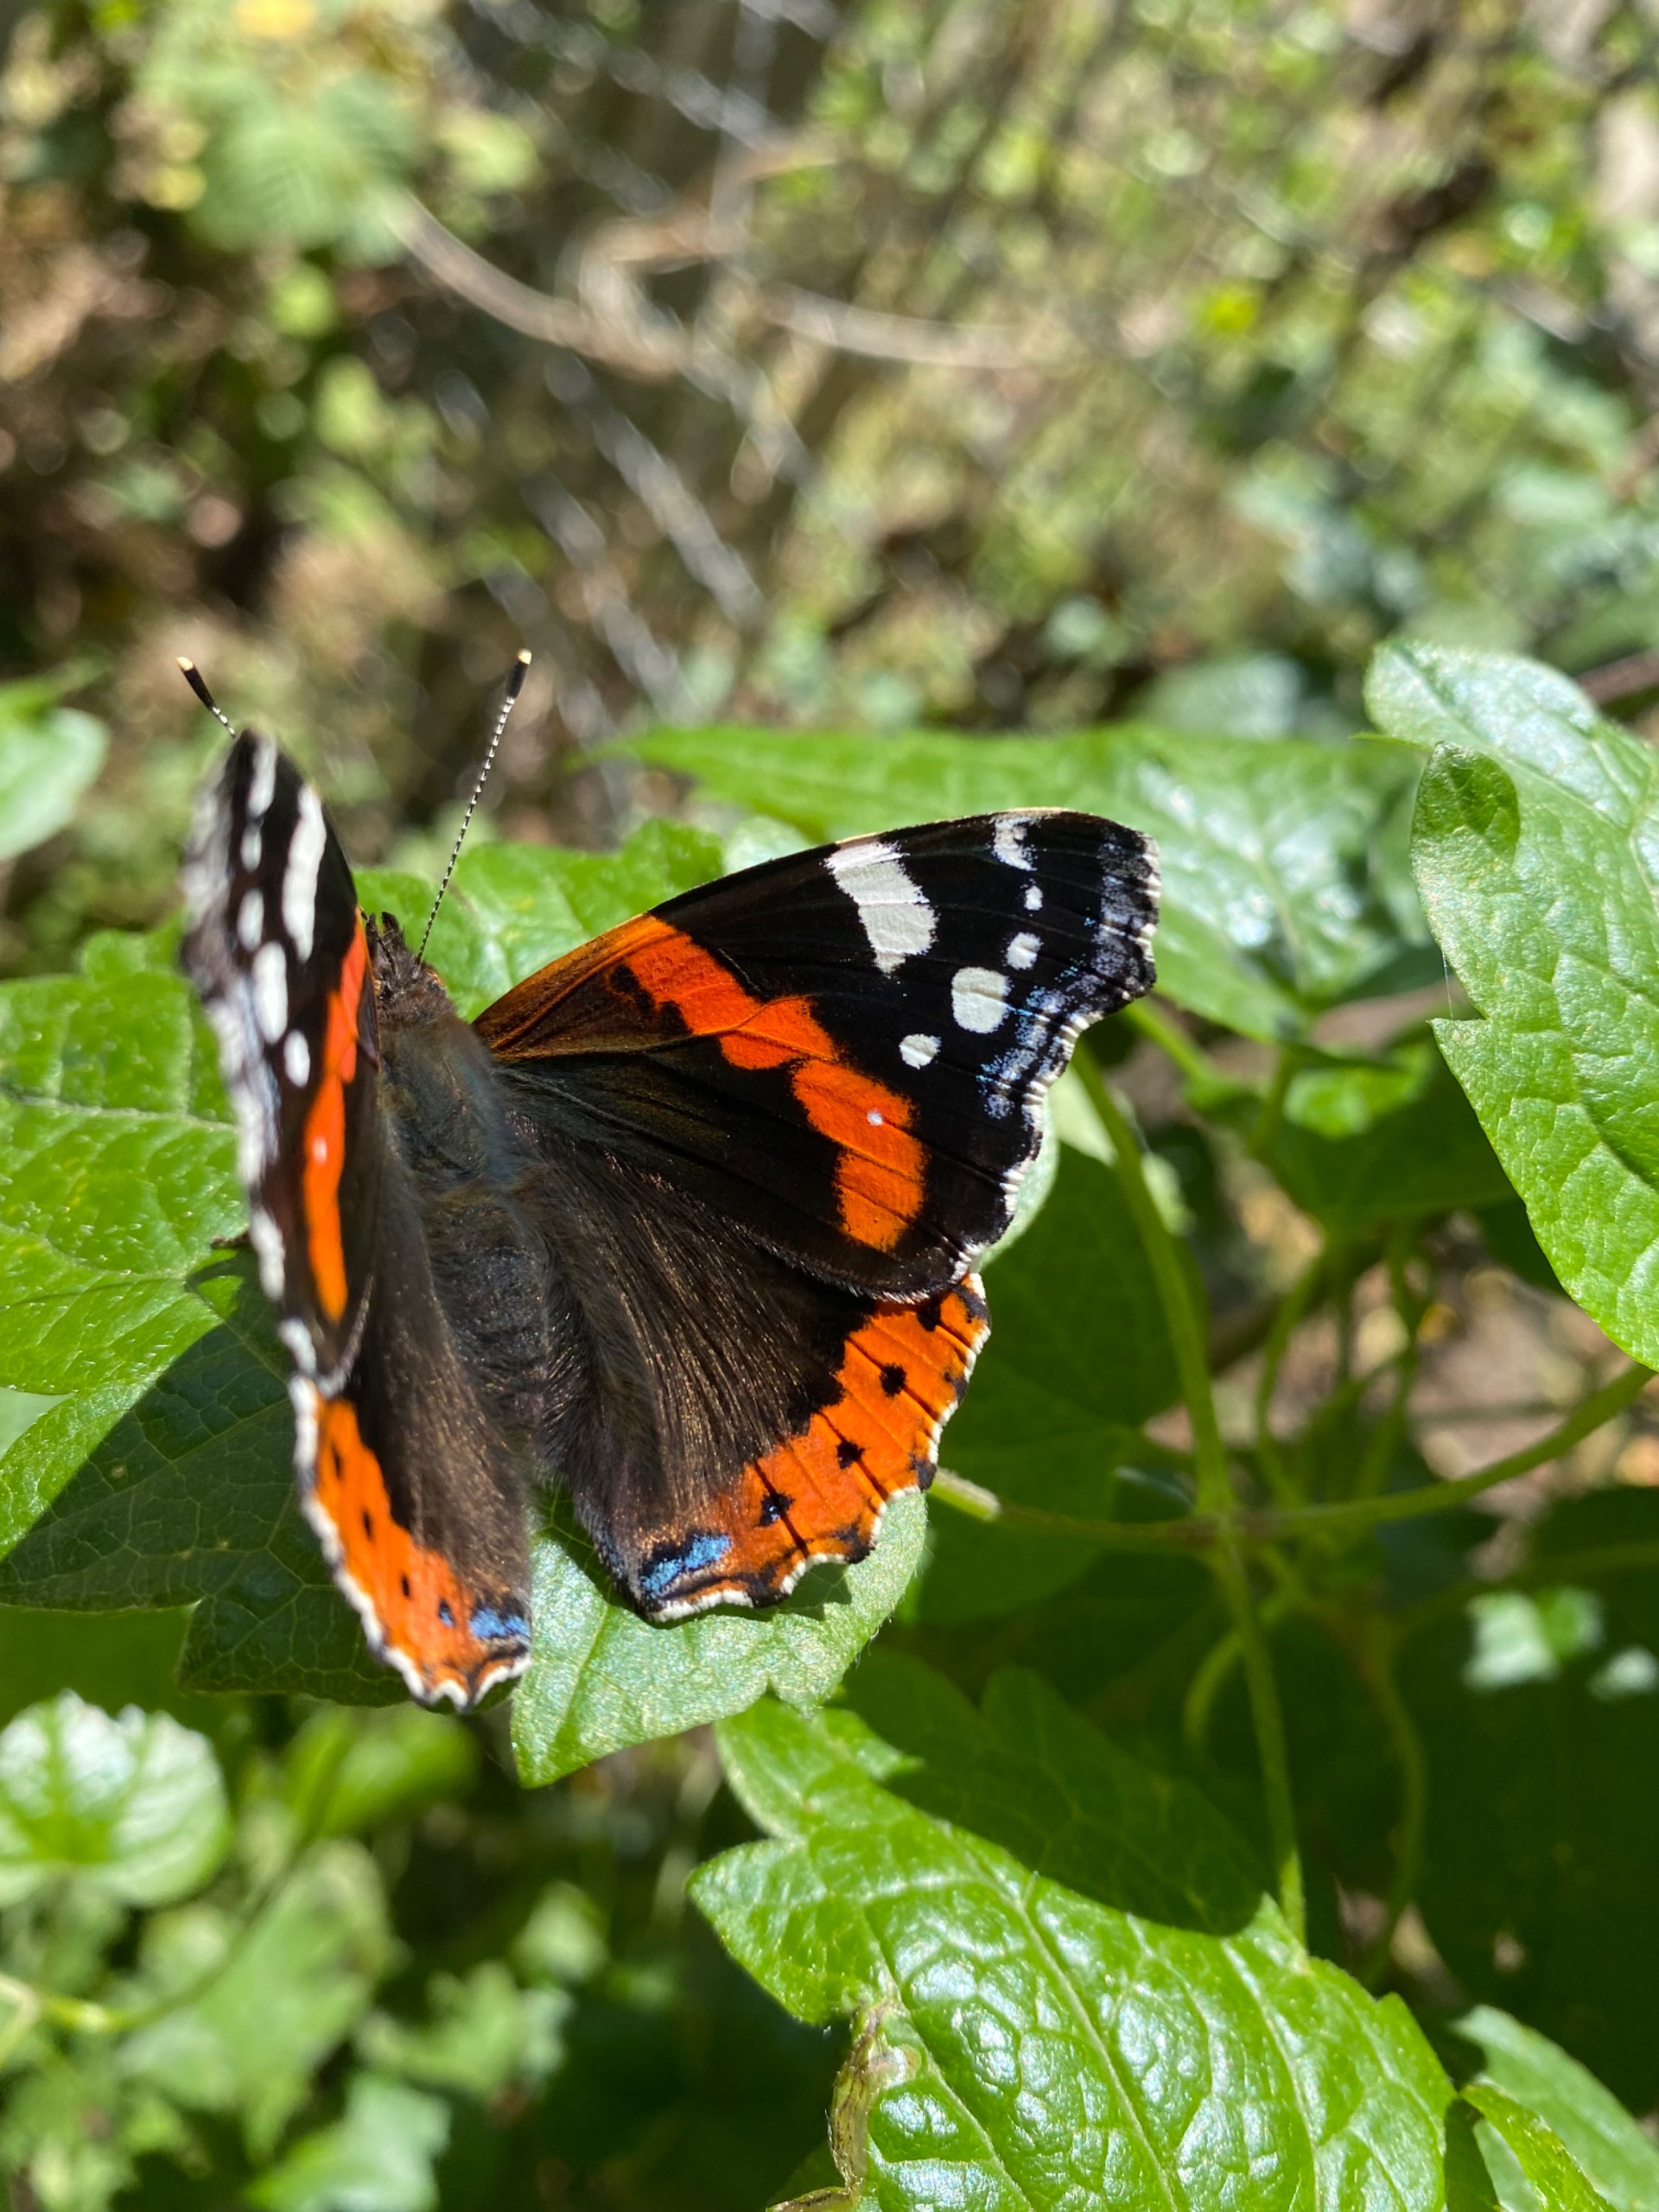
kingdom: Animalia
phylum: Arthropoda
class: Insecta
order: Lepidoptera
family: Nymphalidae
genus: Vanessa
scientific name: Vanessa atalanta
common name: Admiral
